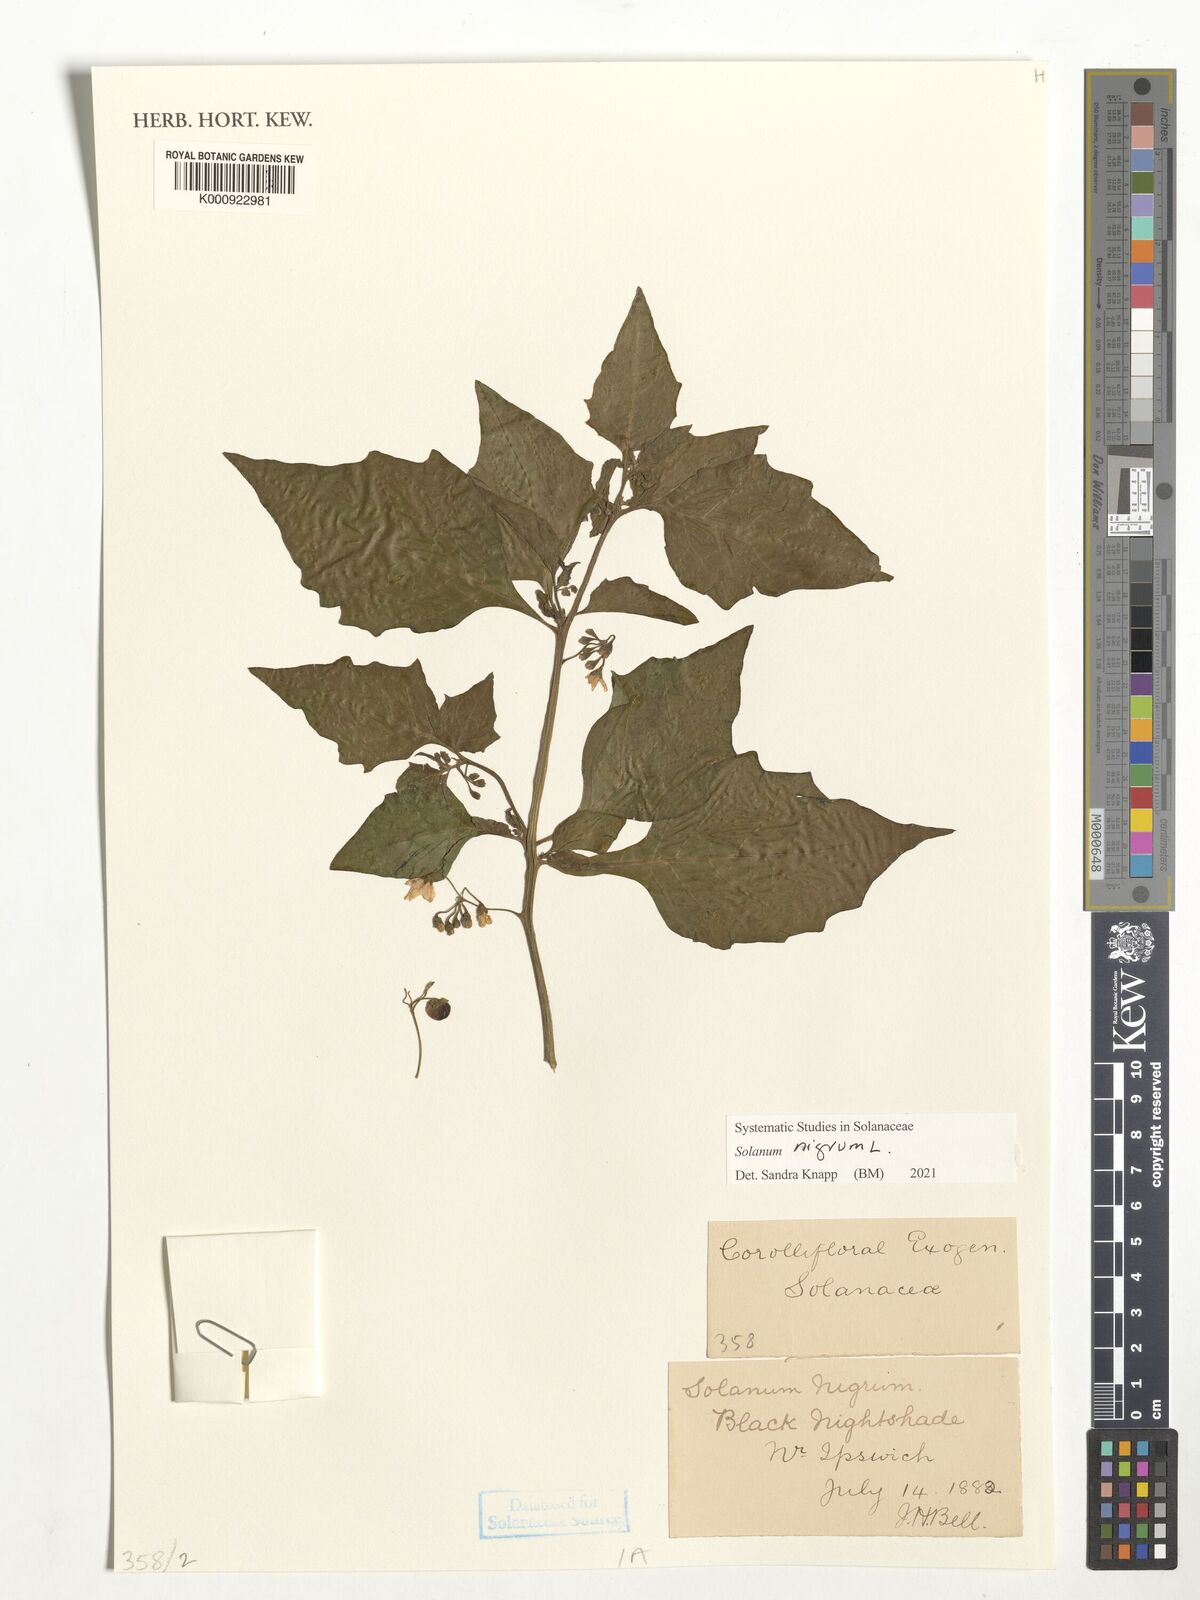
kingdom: Plantae
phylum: Tracheophyta
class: Magnoliopsida
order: Malpighiales
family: Euphorbiaceae
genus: Jatropha
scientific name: Jatropha zeyheri
